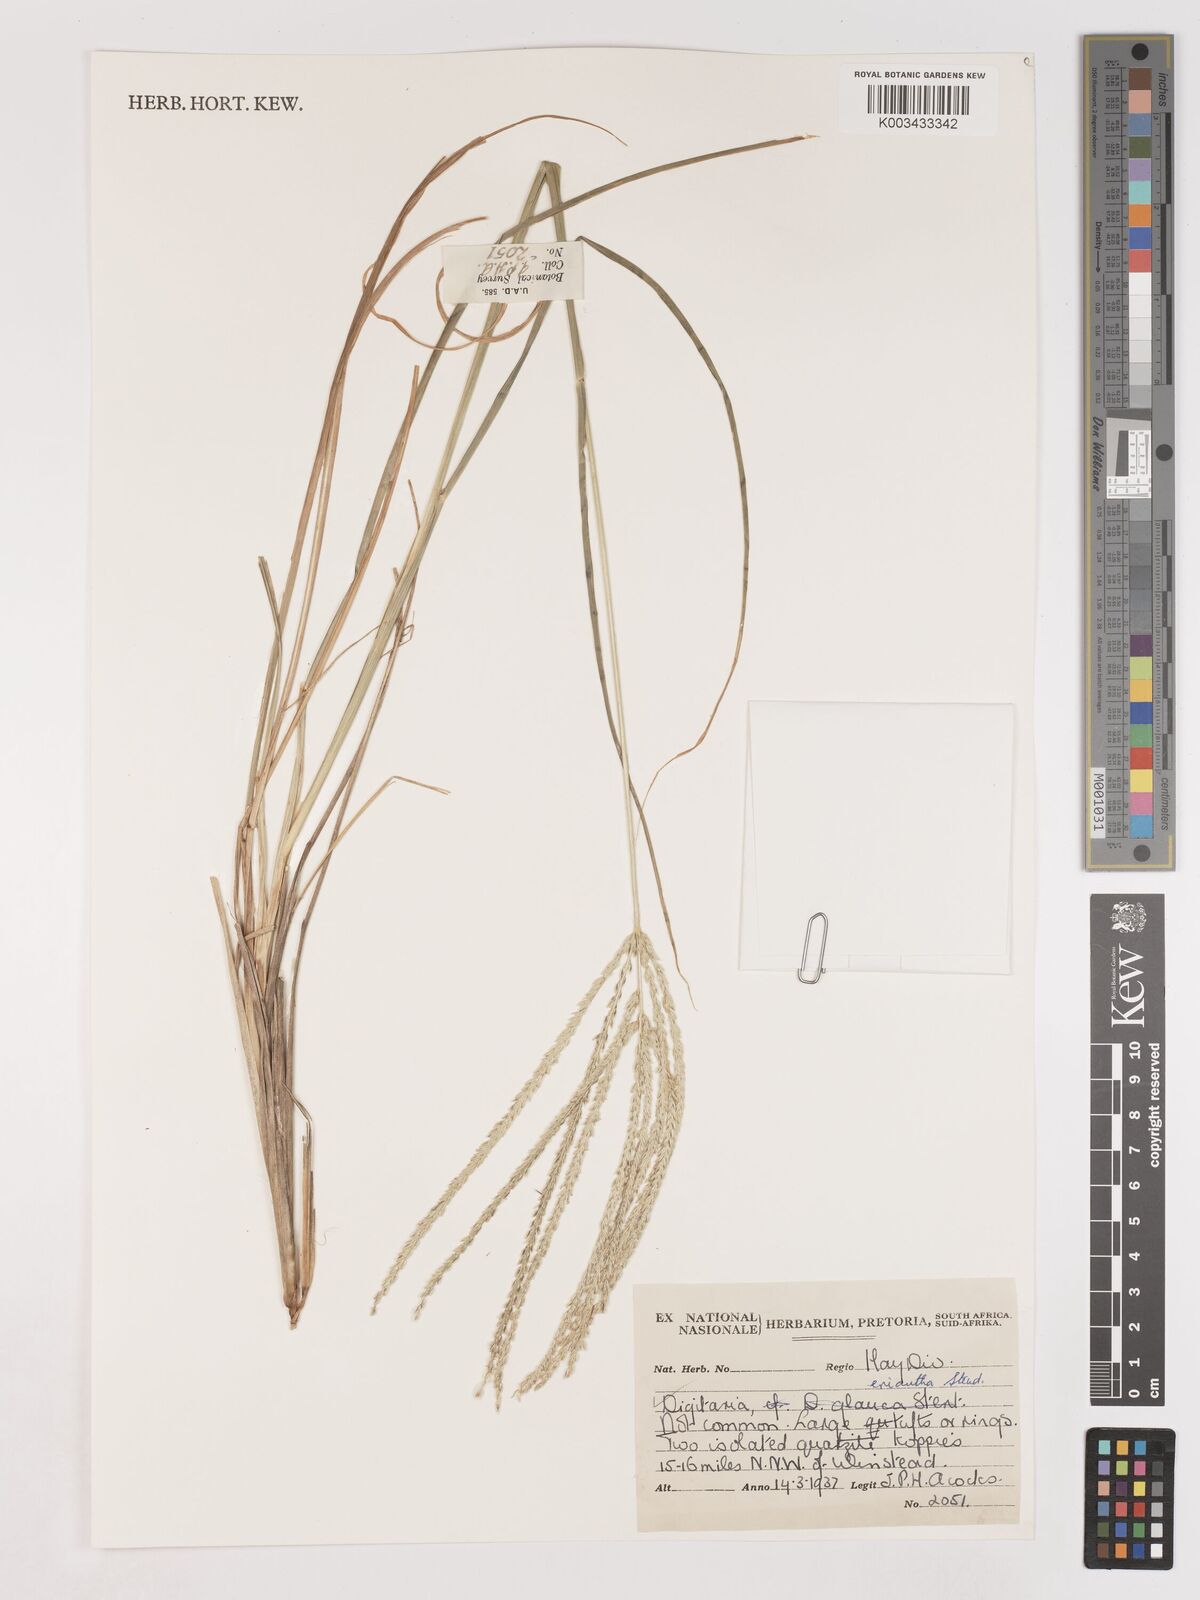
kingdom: Plantae
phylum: Tracheophyta
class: Liliopsida
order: Poales
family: Poaceae
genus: Digitaria
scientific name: Digitaria eriantha
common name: Digitgrass
